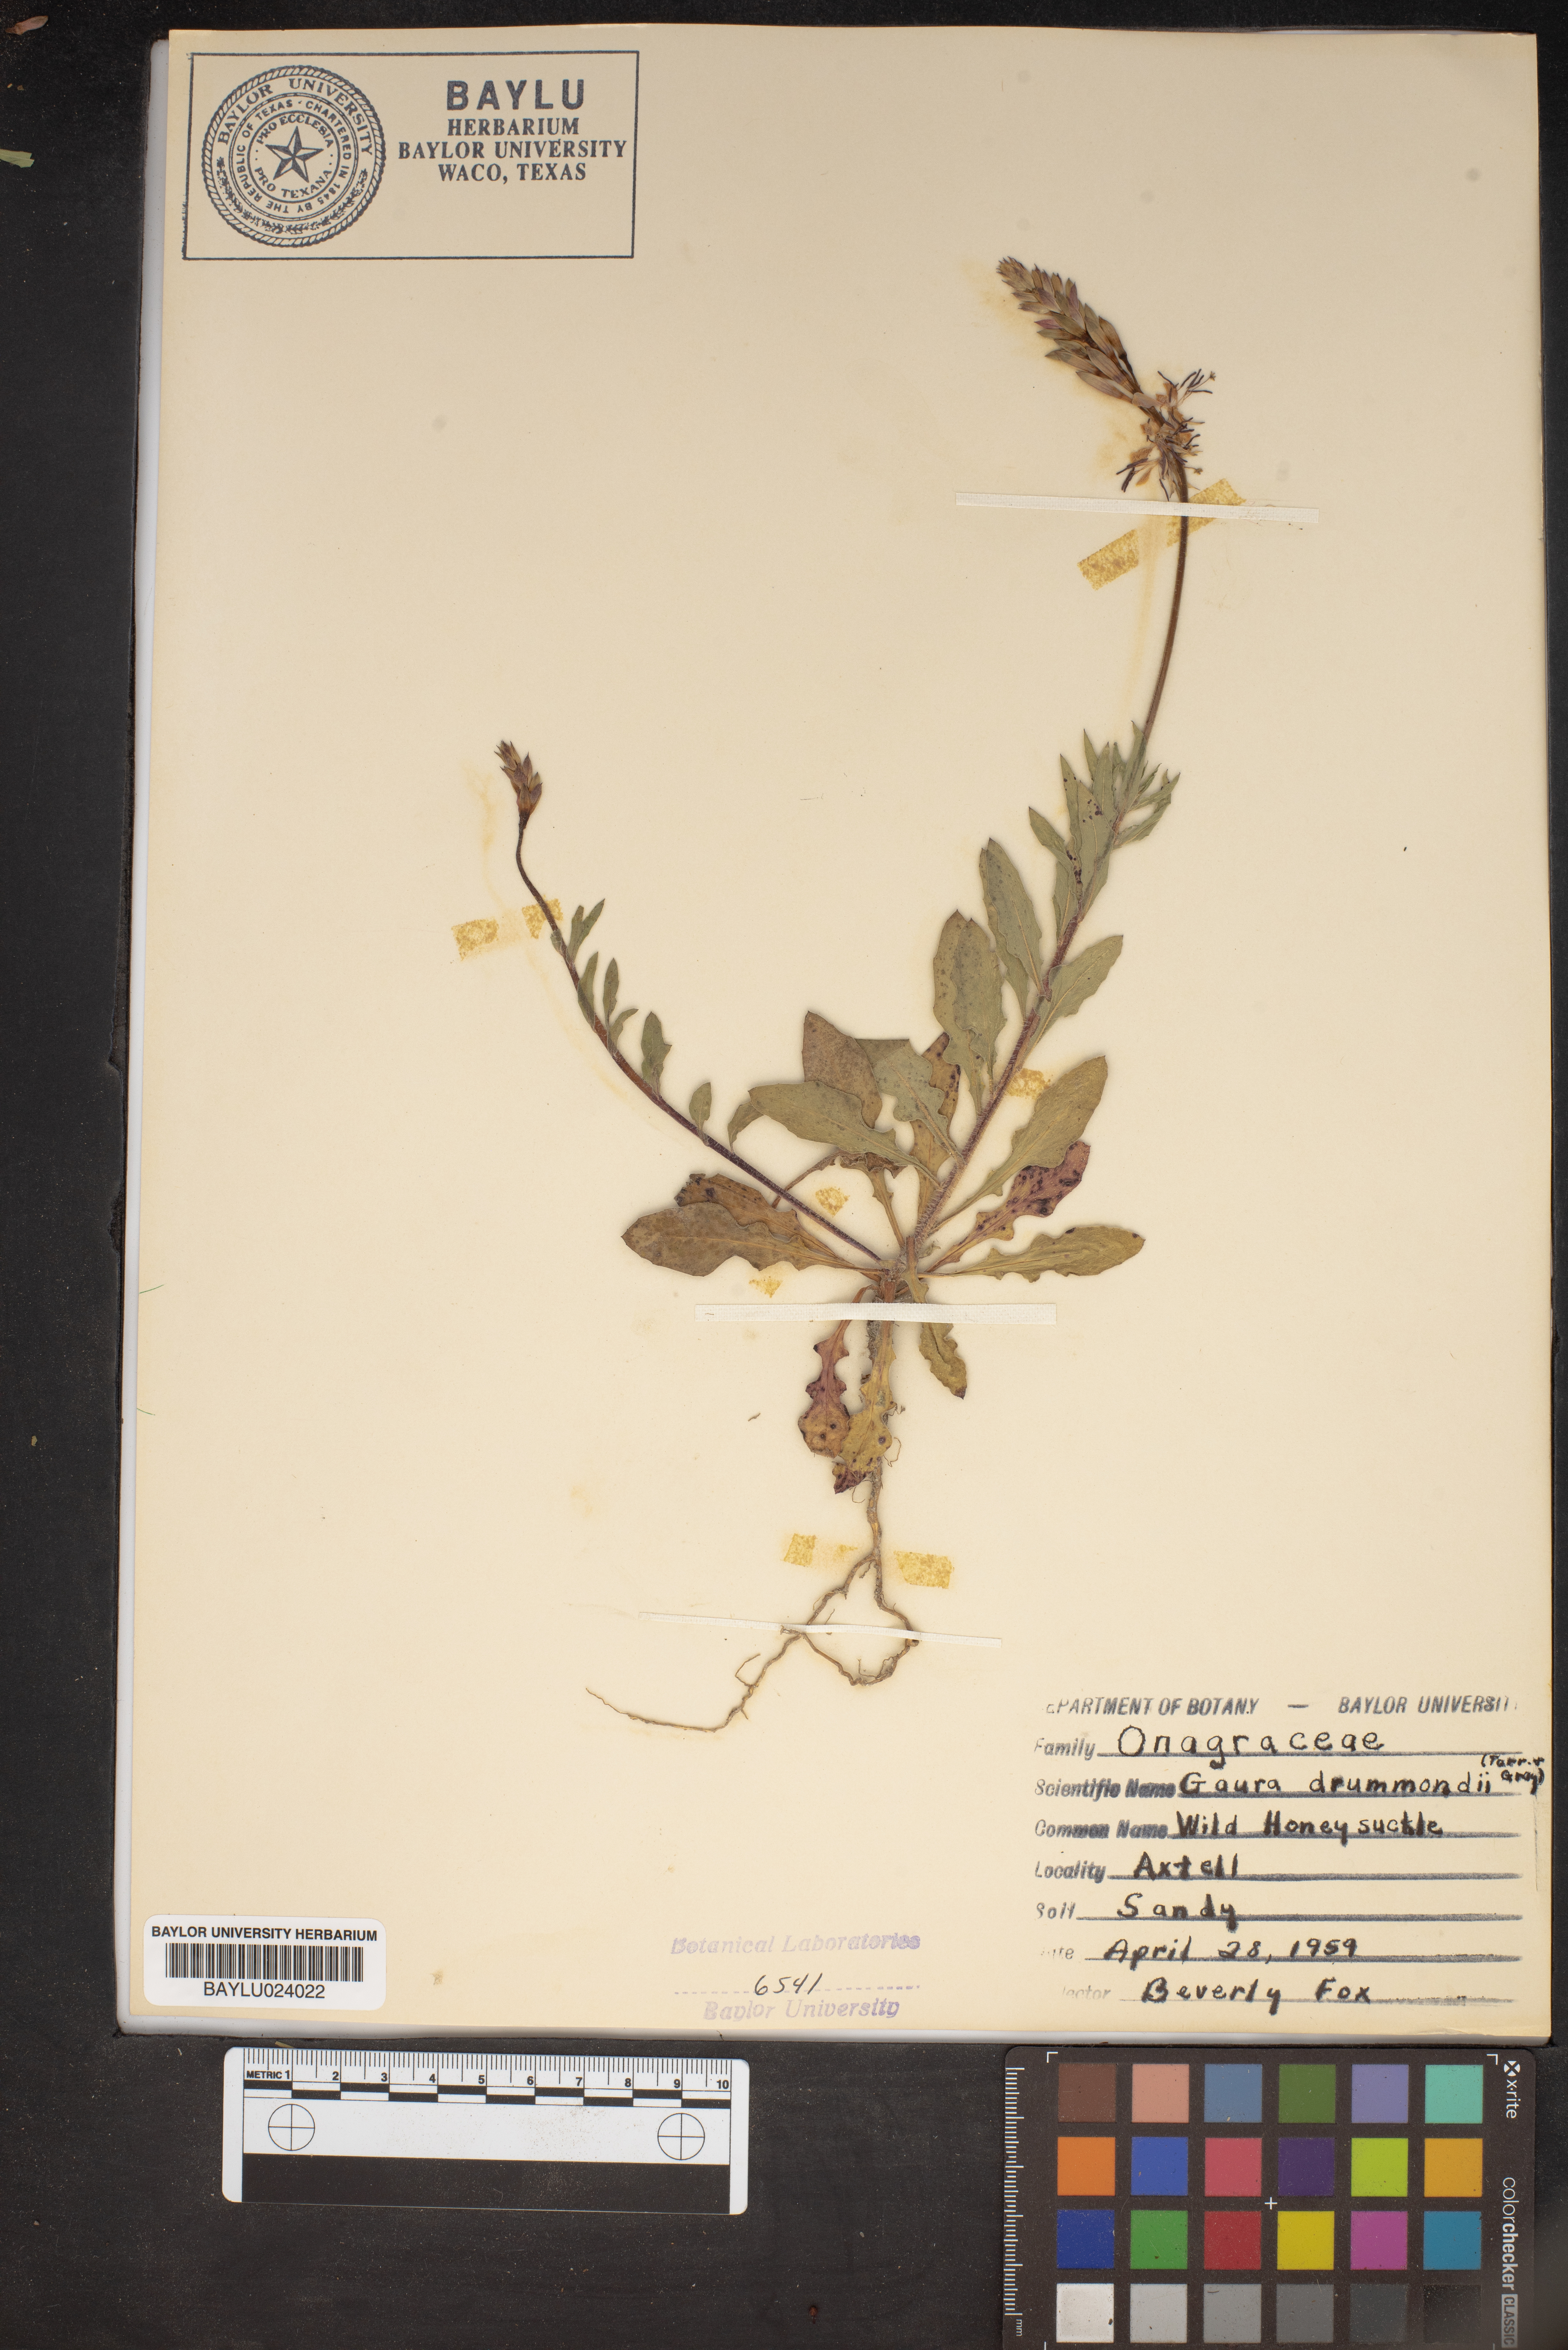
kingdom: Plantae
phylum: Tracheophyta
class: Magnoliopsida
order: Myrtales
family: Onagraceae
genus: Oenothera
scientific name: Oenothera hispida
